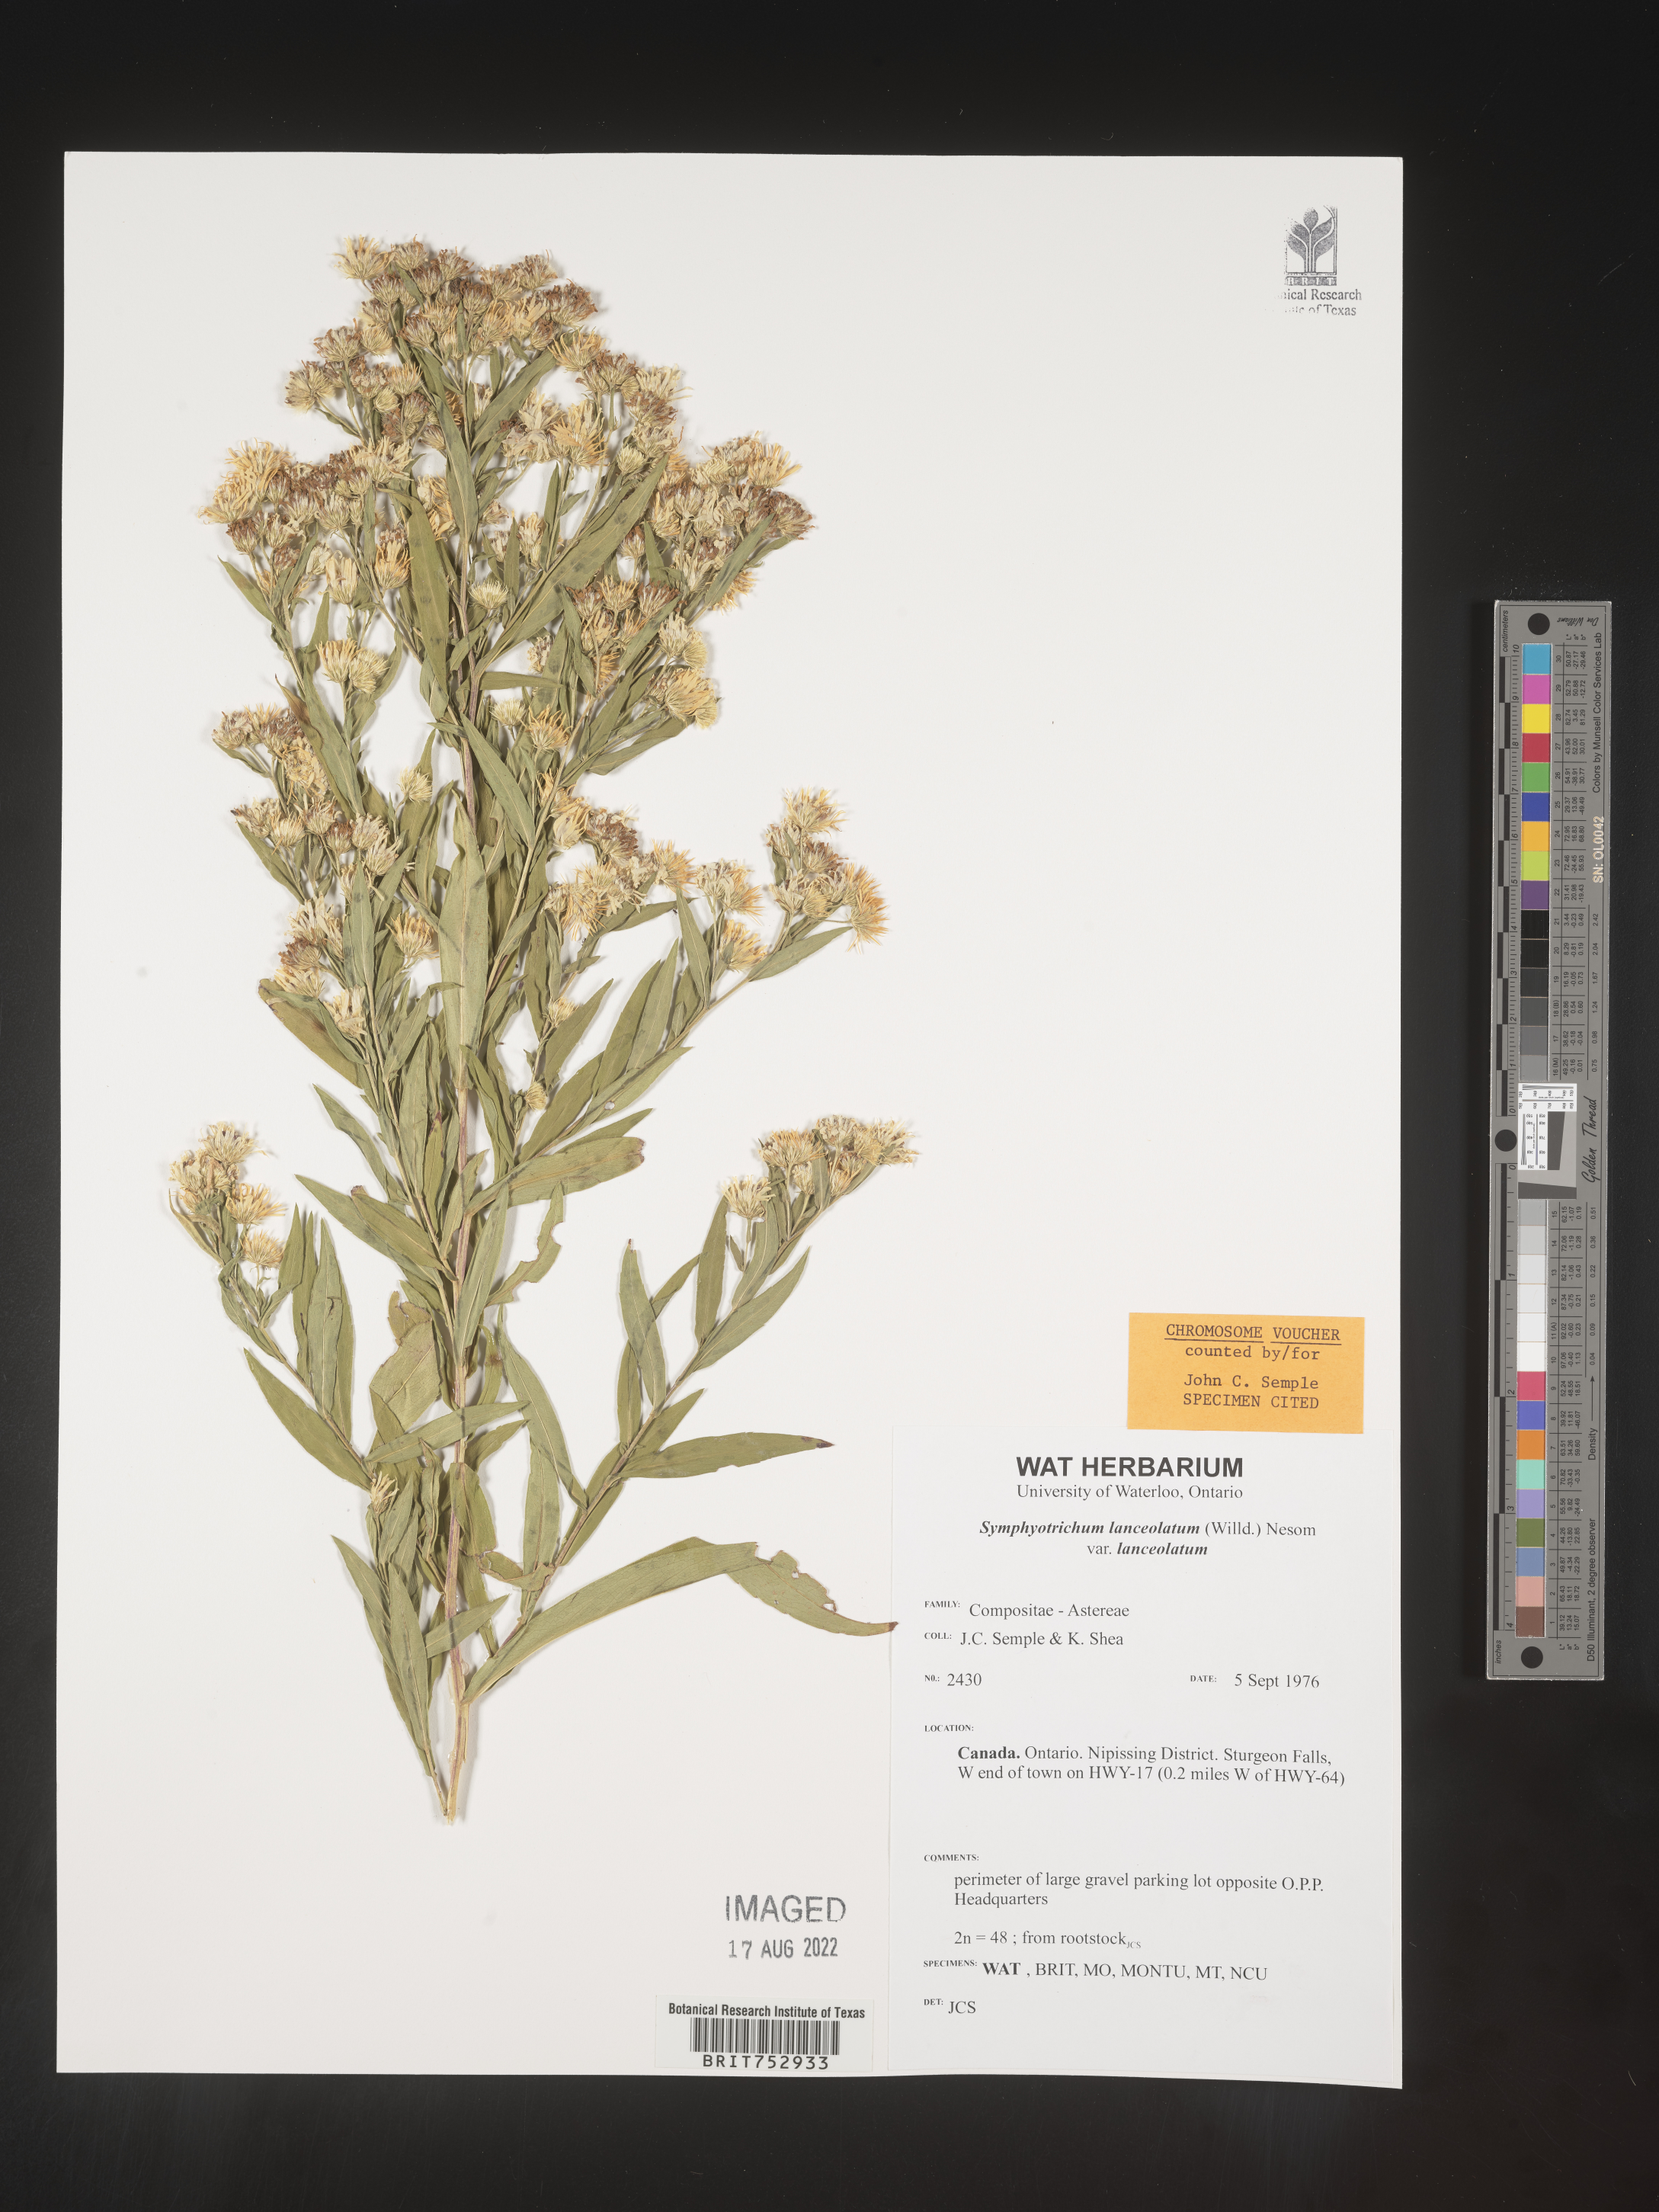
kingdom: Plantae
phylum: Tracheophyta
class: Magnoliopsida
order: Asterales
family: Asteraceae
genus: Symphyotrichum
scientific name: Symphyotrichum lanceolatum
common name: Panicled aster
